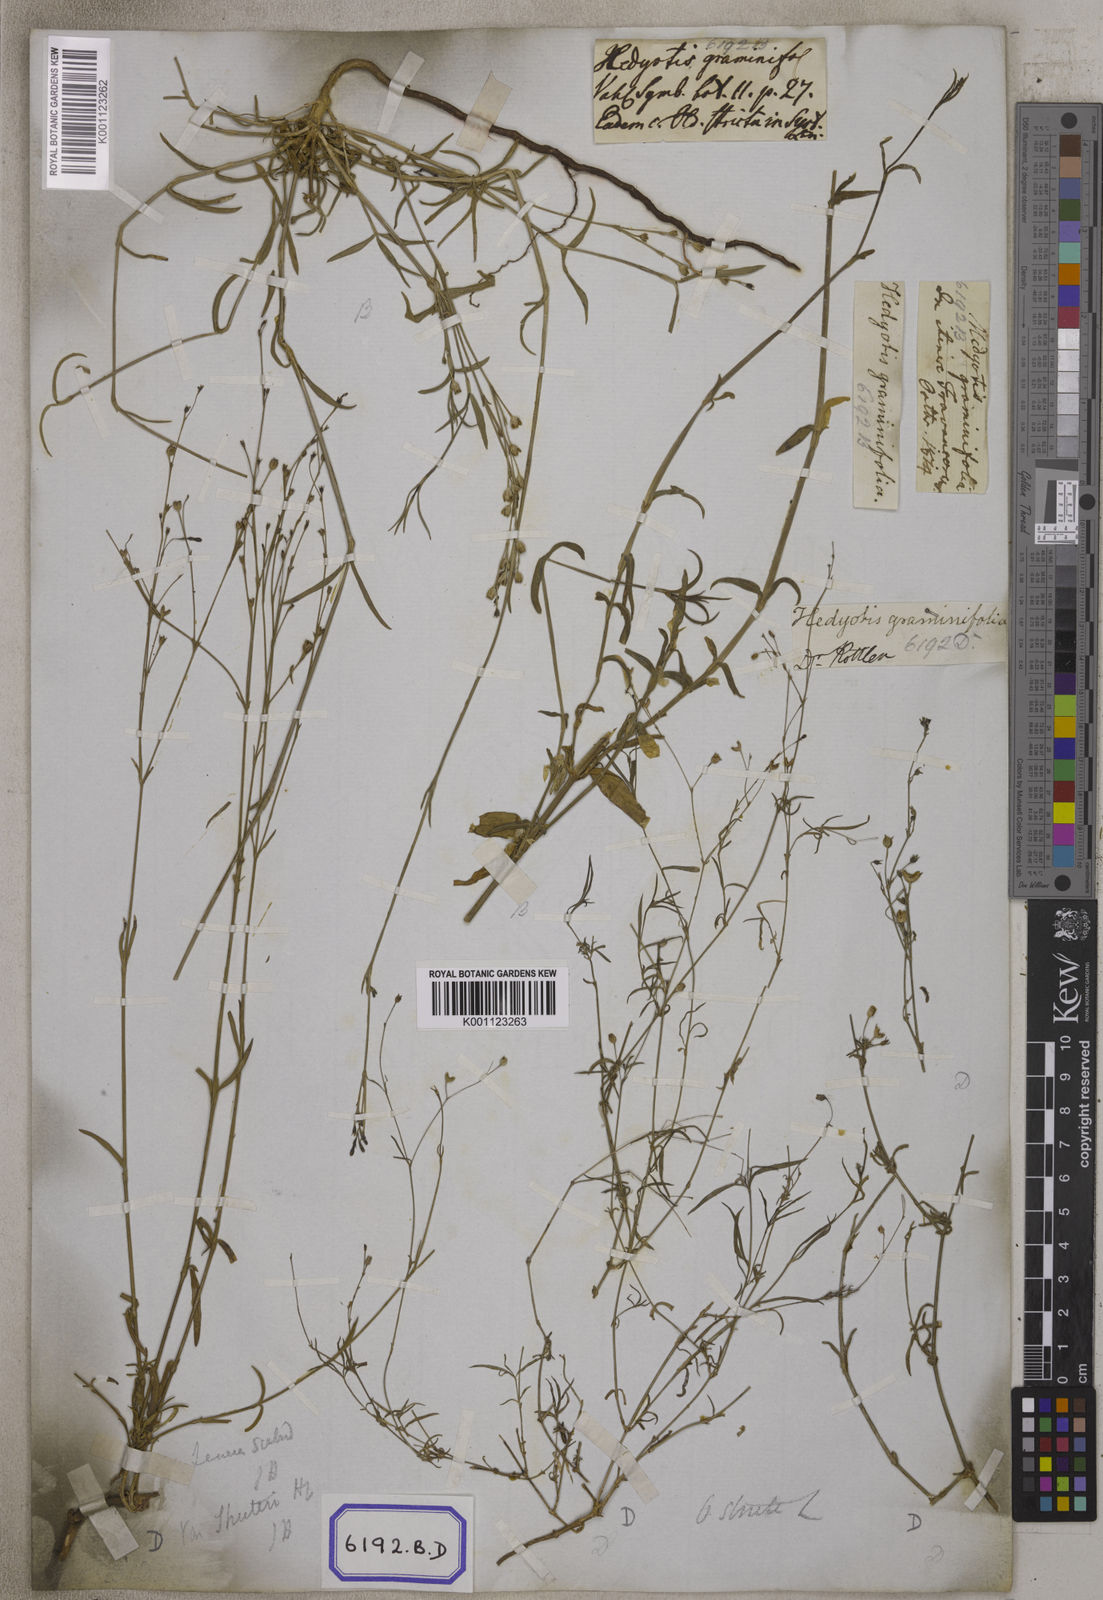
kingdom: Plantae
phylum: Tracheophyta
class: Magnoliopsida
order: Gentianales
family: Rubiaceae
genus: Hedyotis
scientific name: Hedyotis
